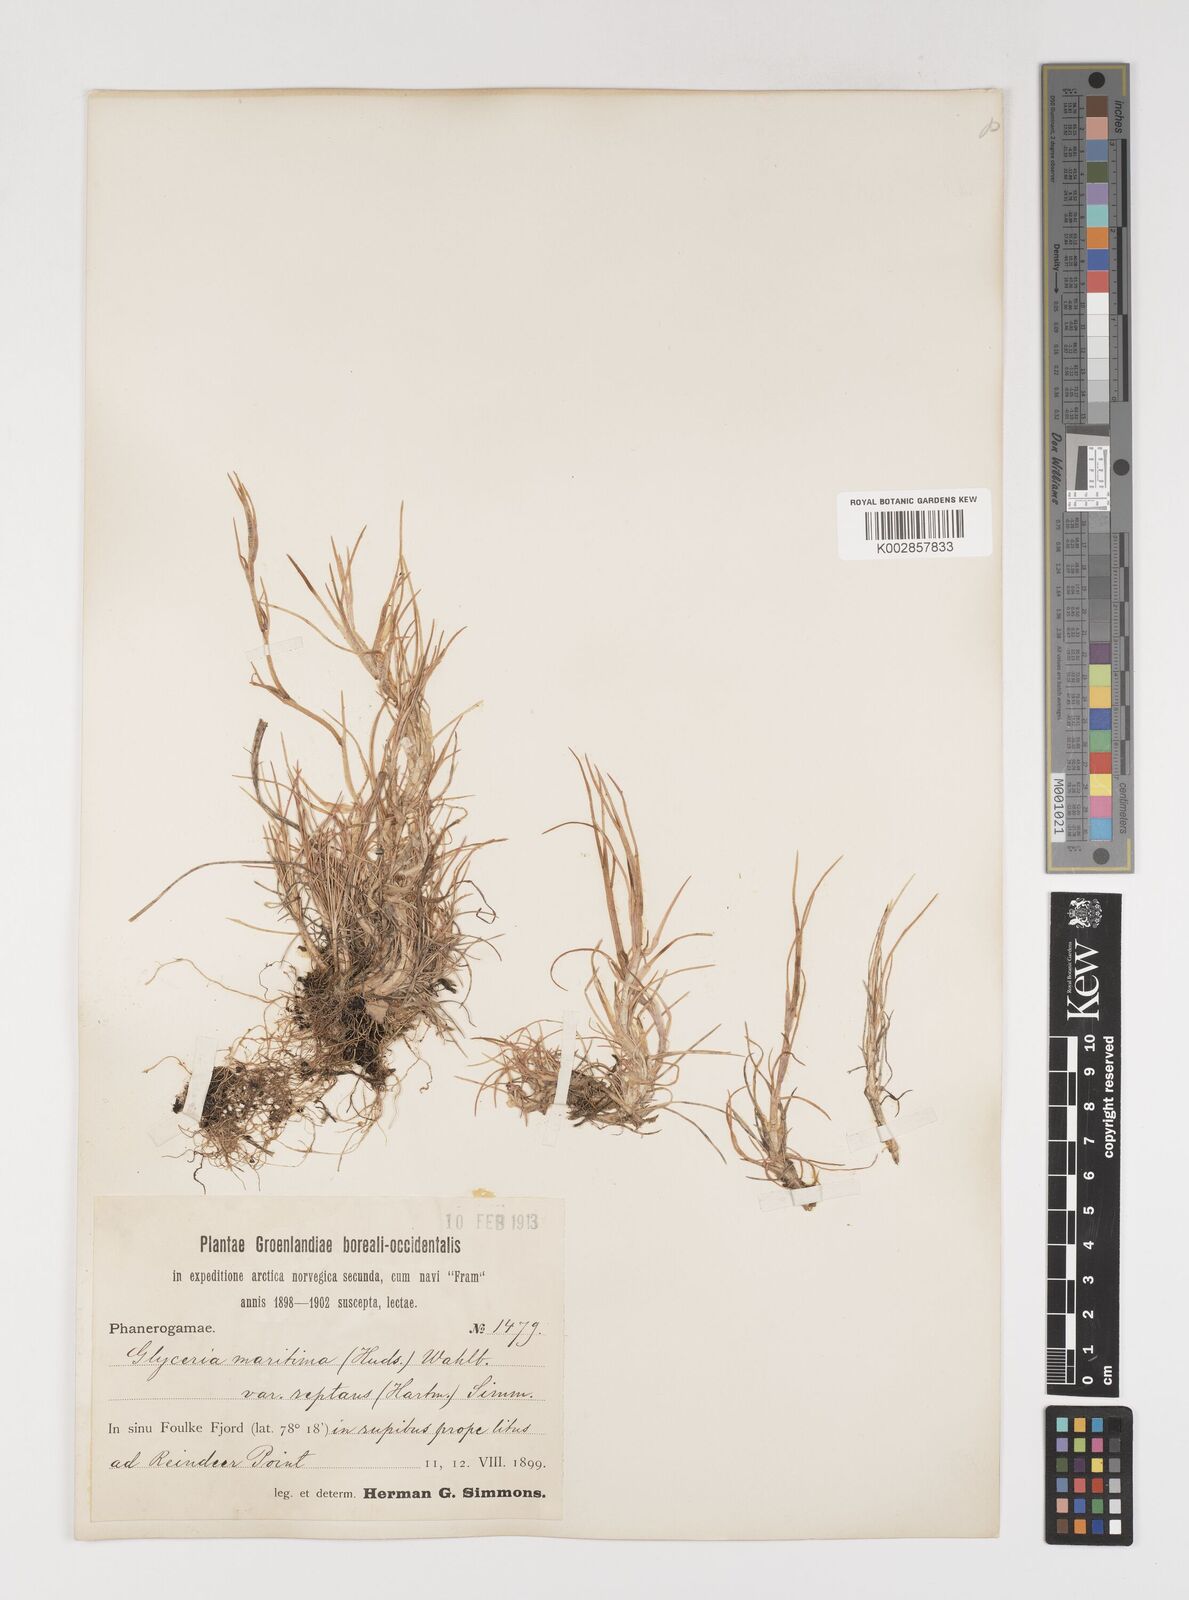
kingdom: Plantae
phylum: Tracheophyta
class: Liliopsida
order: Poales
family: Poaceae
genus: Puccinellia
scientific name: Puccinellia phryganodes
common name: Creeping alkaligrass
